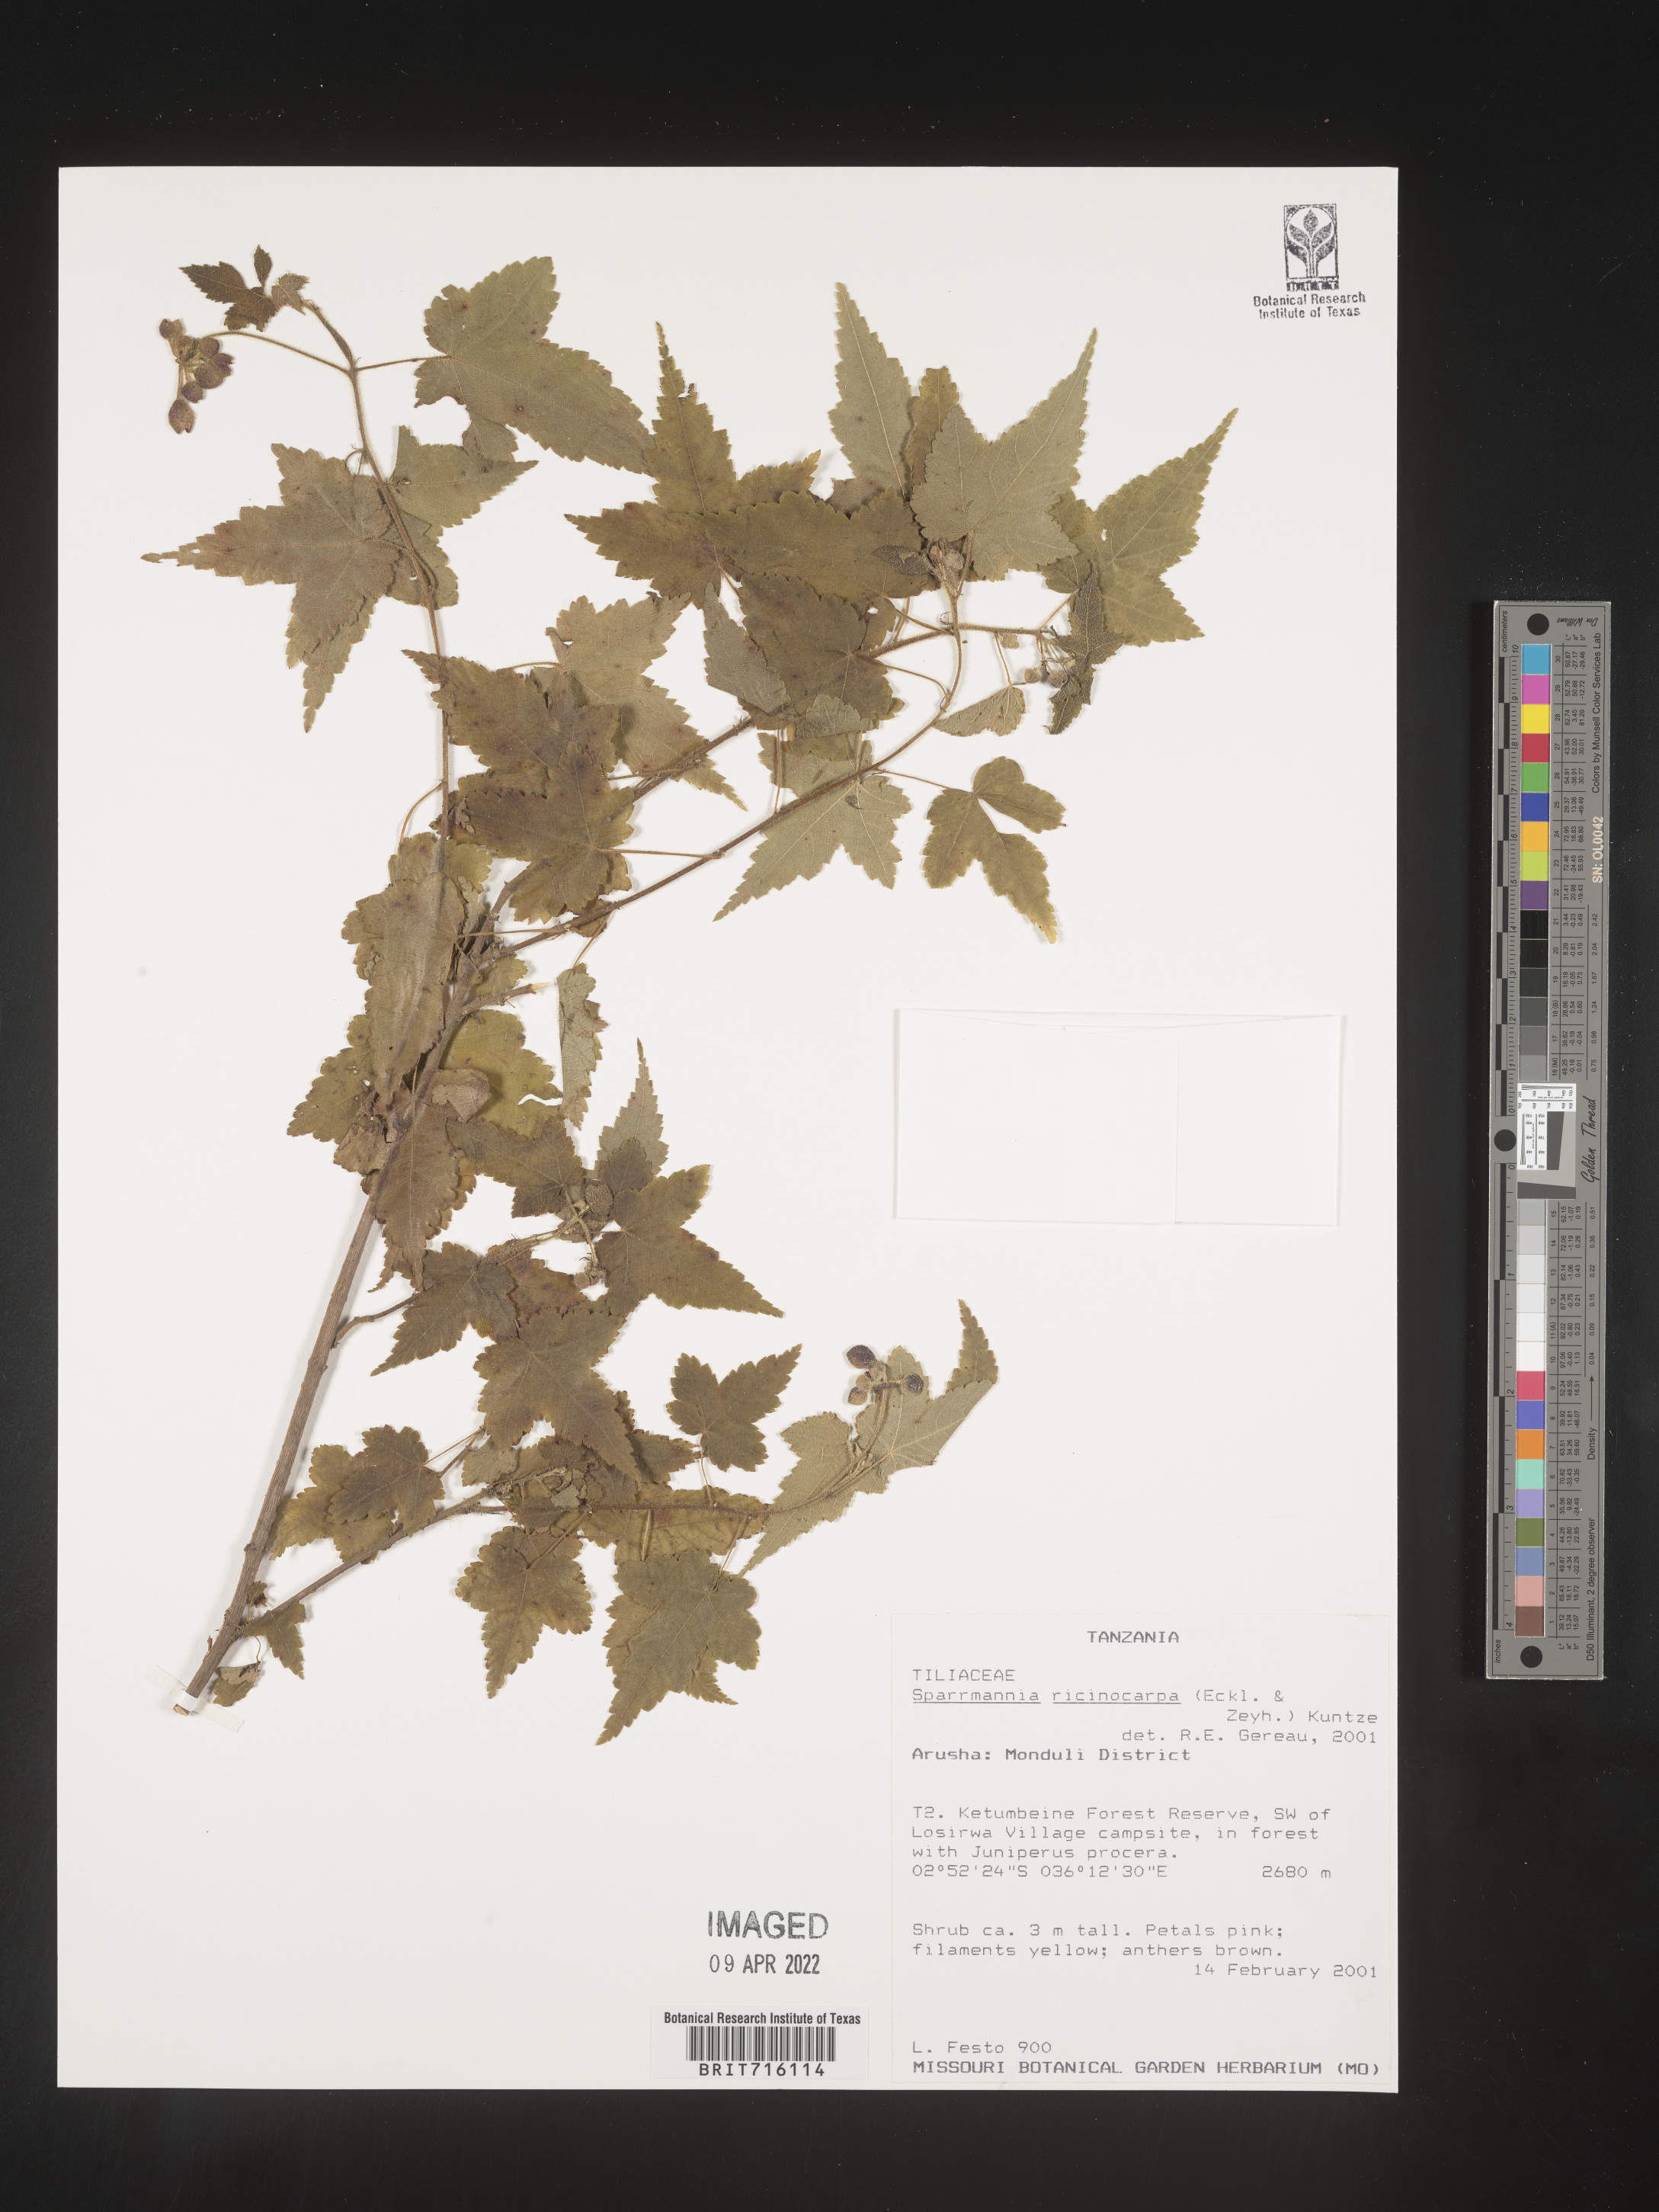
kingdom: Plantae
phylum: Tracheophyta
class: Magnoliopsida
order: Malvales
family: Malvaceae
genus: Sparrmannia
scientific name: Sparrmannia
